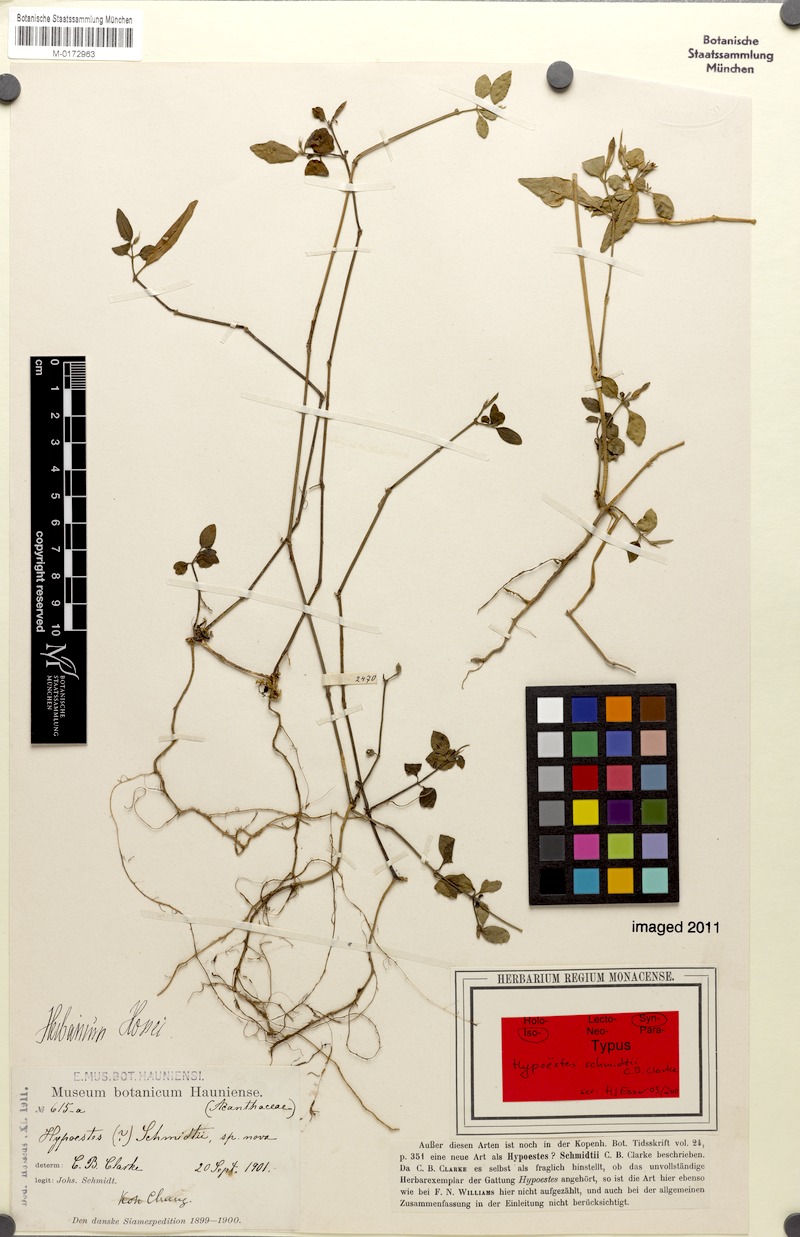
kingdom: Plantae
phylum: Tracheophyta
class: Magnoliopsida
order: Lamiales
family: Acanthaceae
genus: Hypoestes
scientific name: Hypoestes schmidtii
